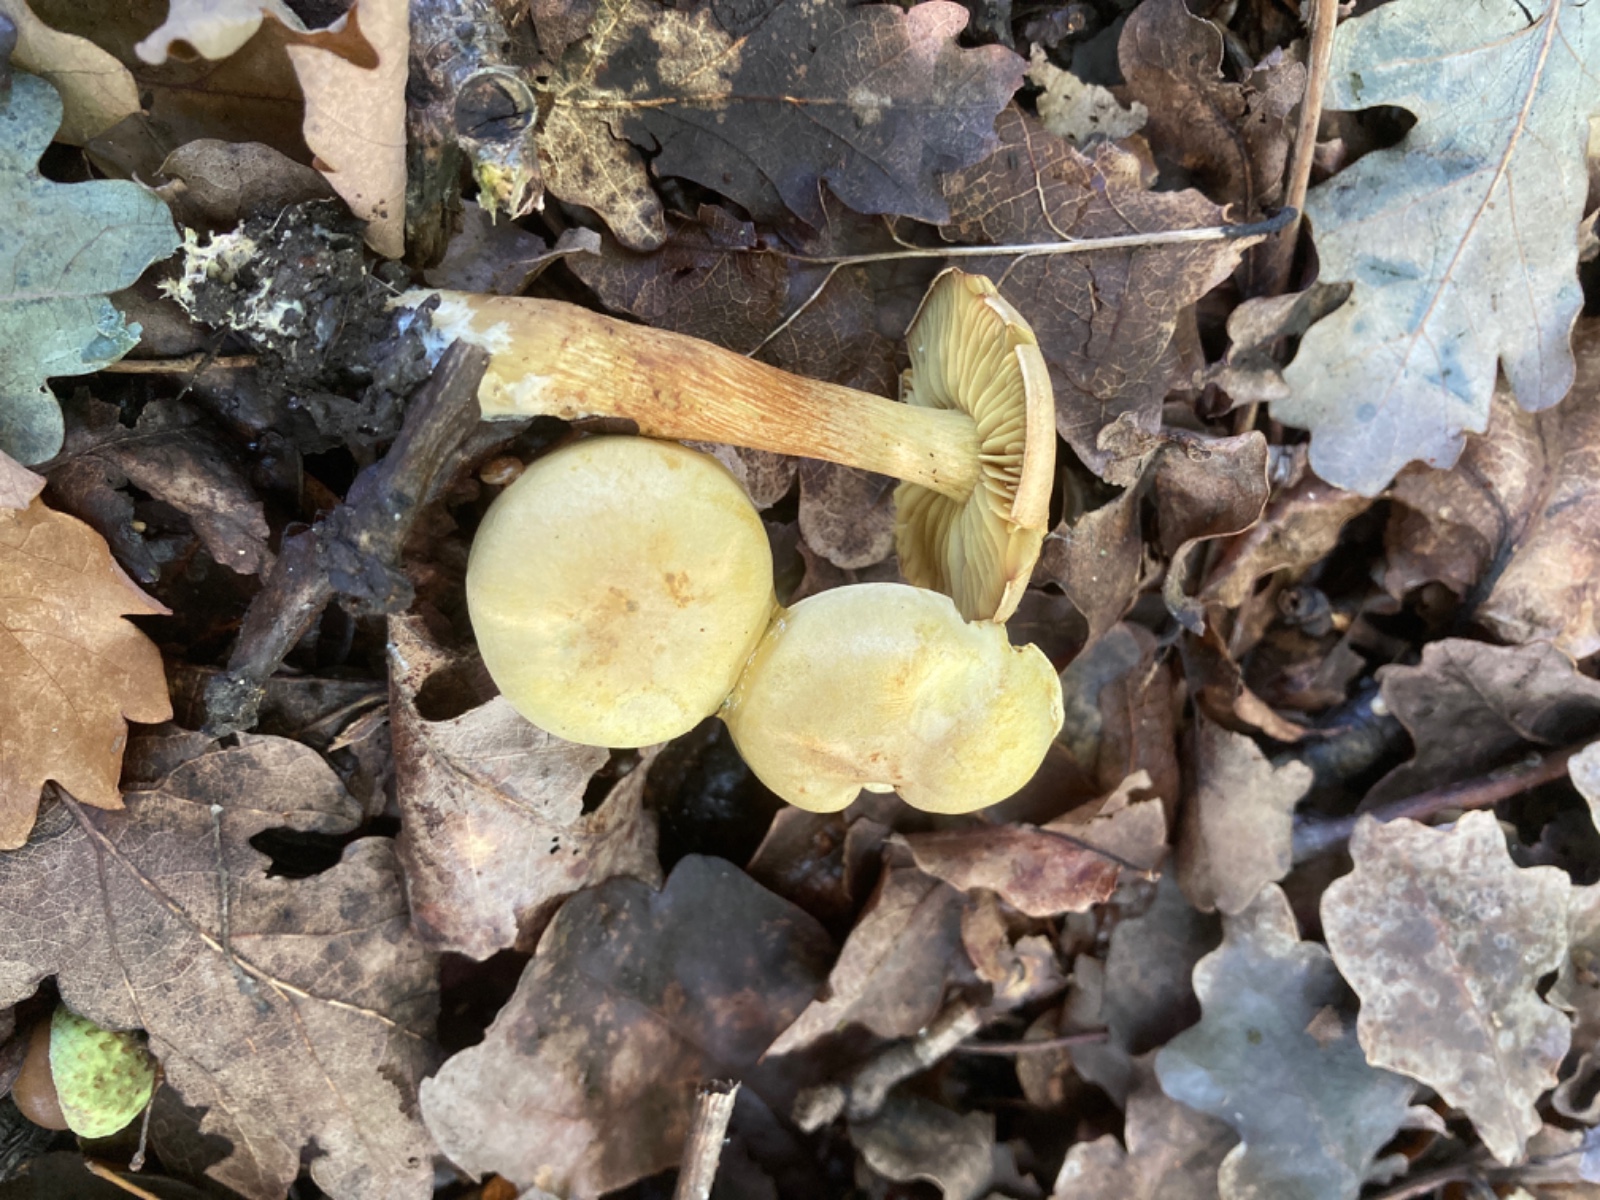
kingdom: Fungi
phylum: Basidiomycota
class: Agaricomycetes
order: Agaricales
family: Tricholomataceae
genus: Tricholoma
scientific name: Tricholoma sulphureum
